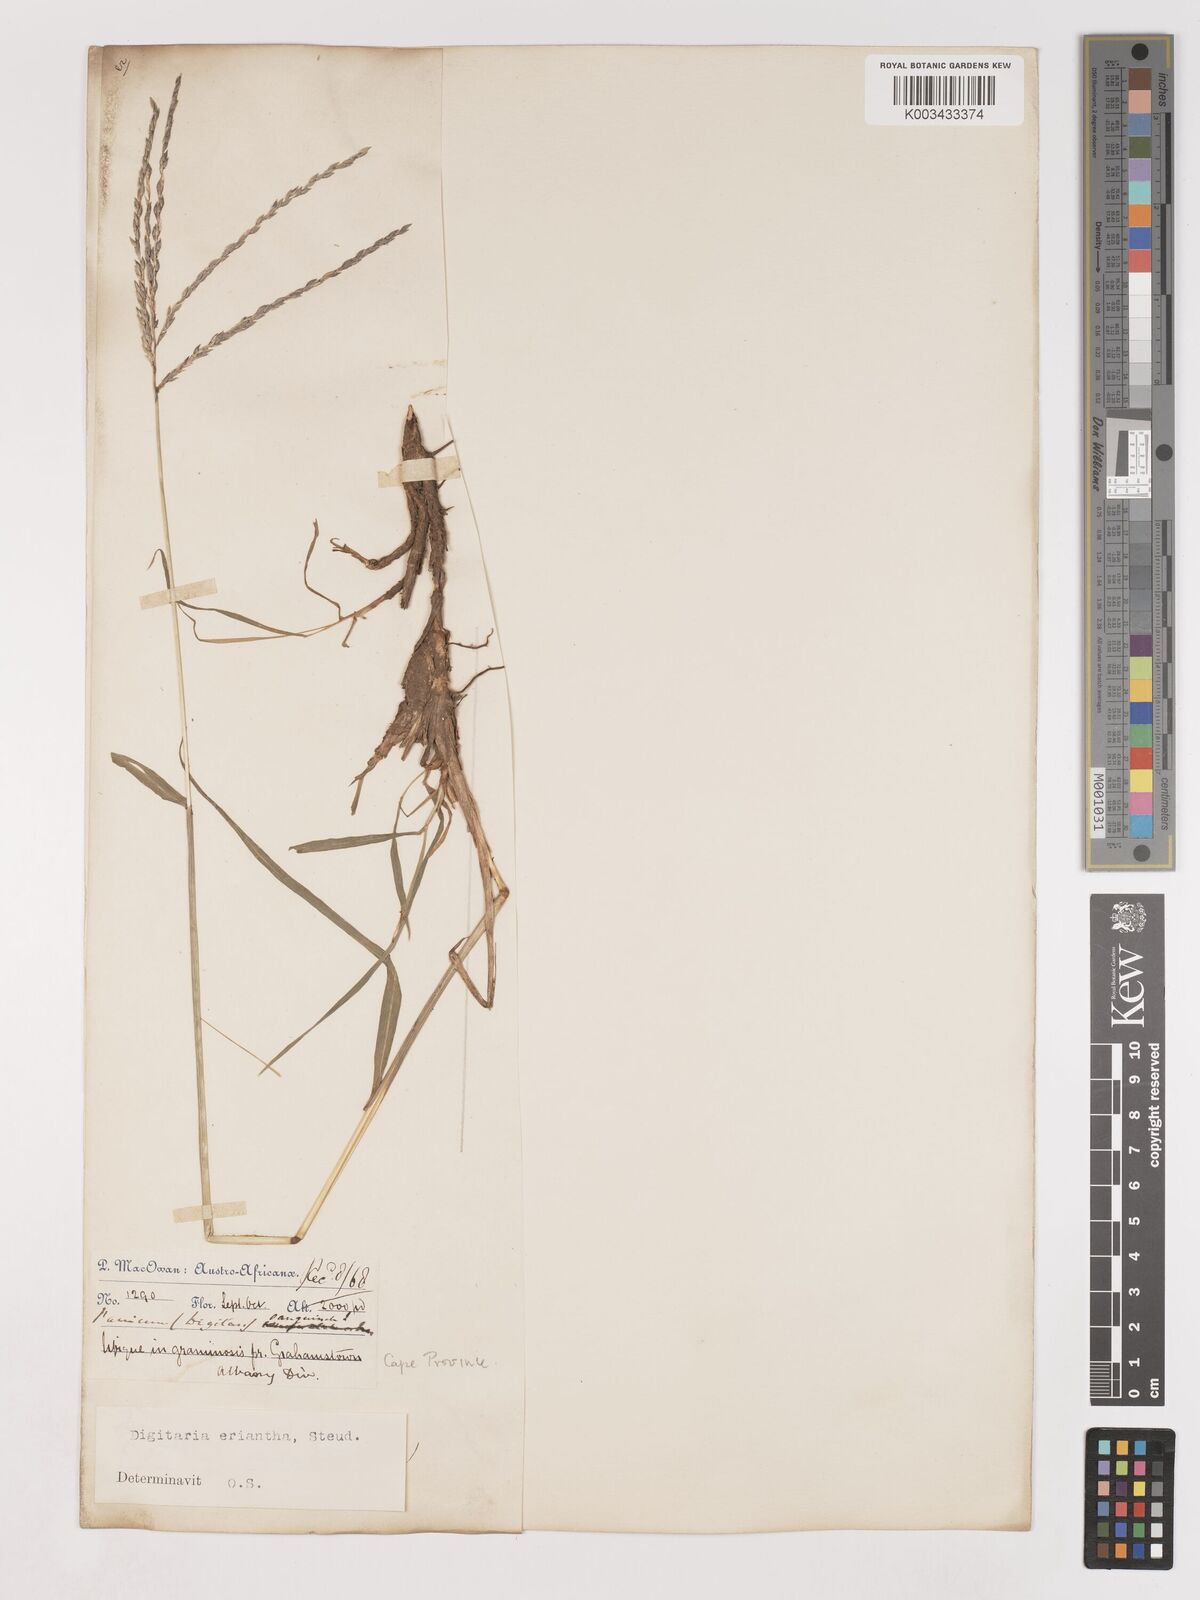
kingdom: Plantae
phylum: Tracheophyta
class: Liliopsida
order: Poales
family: Poaceae
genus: Digitaria
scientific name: Digitaria eriantha
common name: Digitgrass
